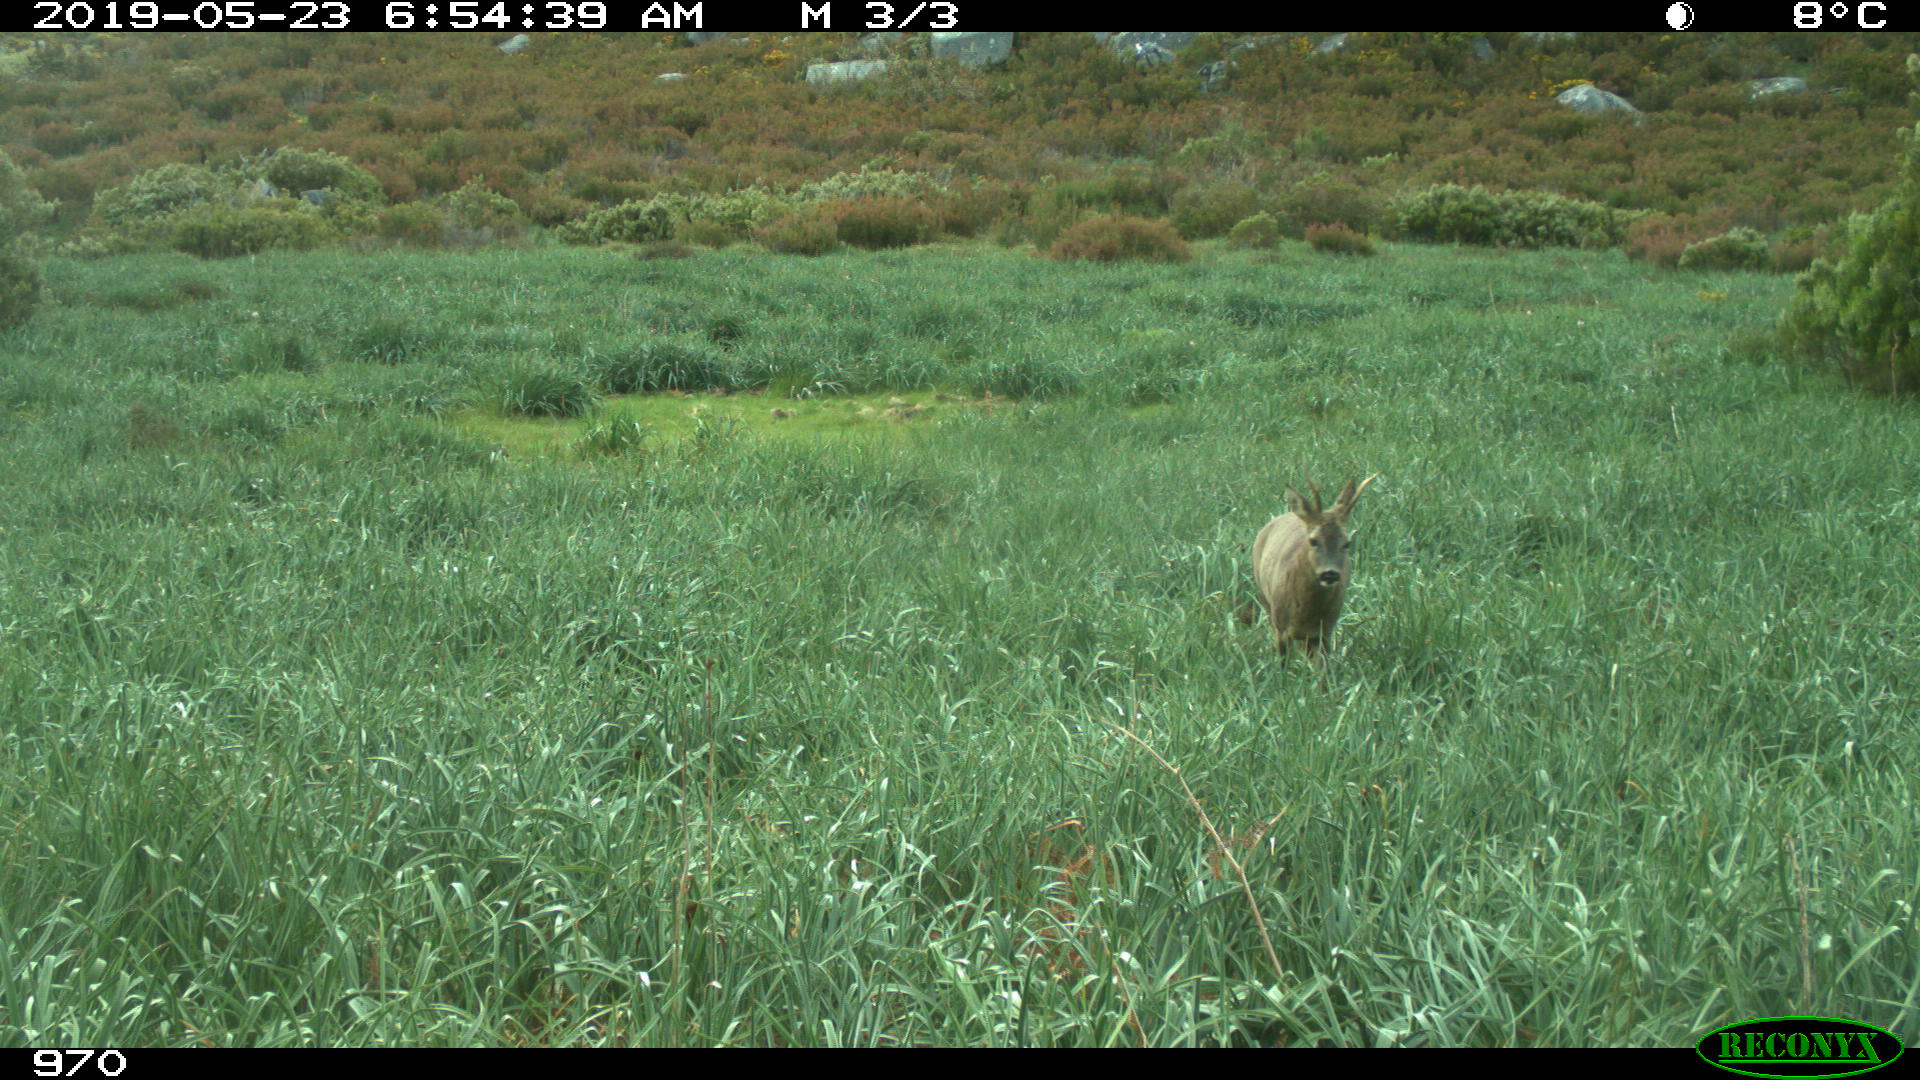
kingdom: Animalia
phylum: Chordata
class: Mammalia
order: Artiodactyla
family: Cervidae
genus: Capreolus
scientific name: Capreolus capreolus
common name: Western roe deer
